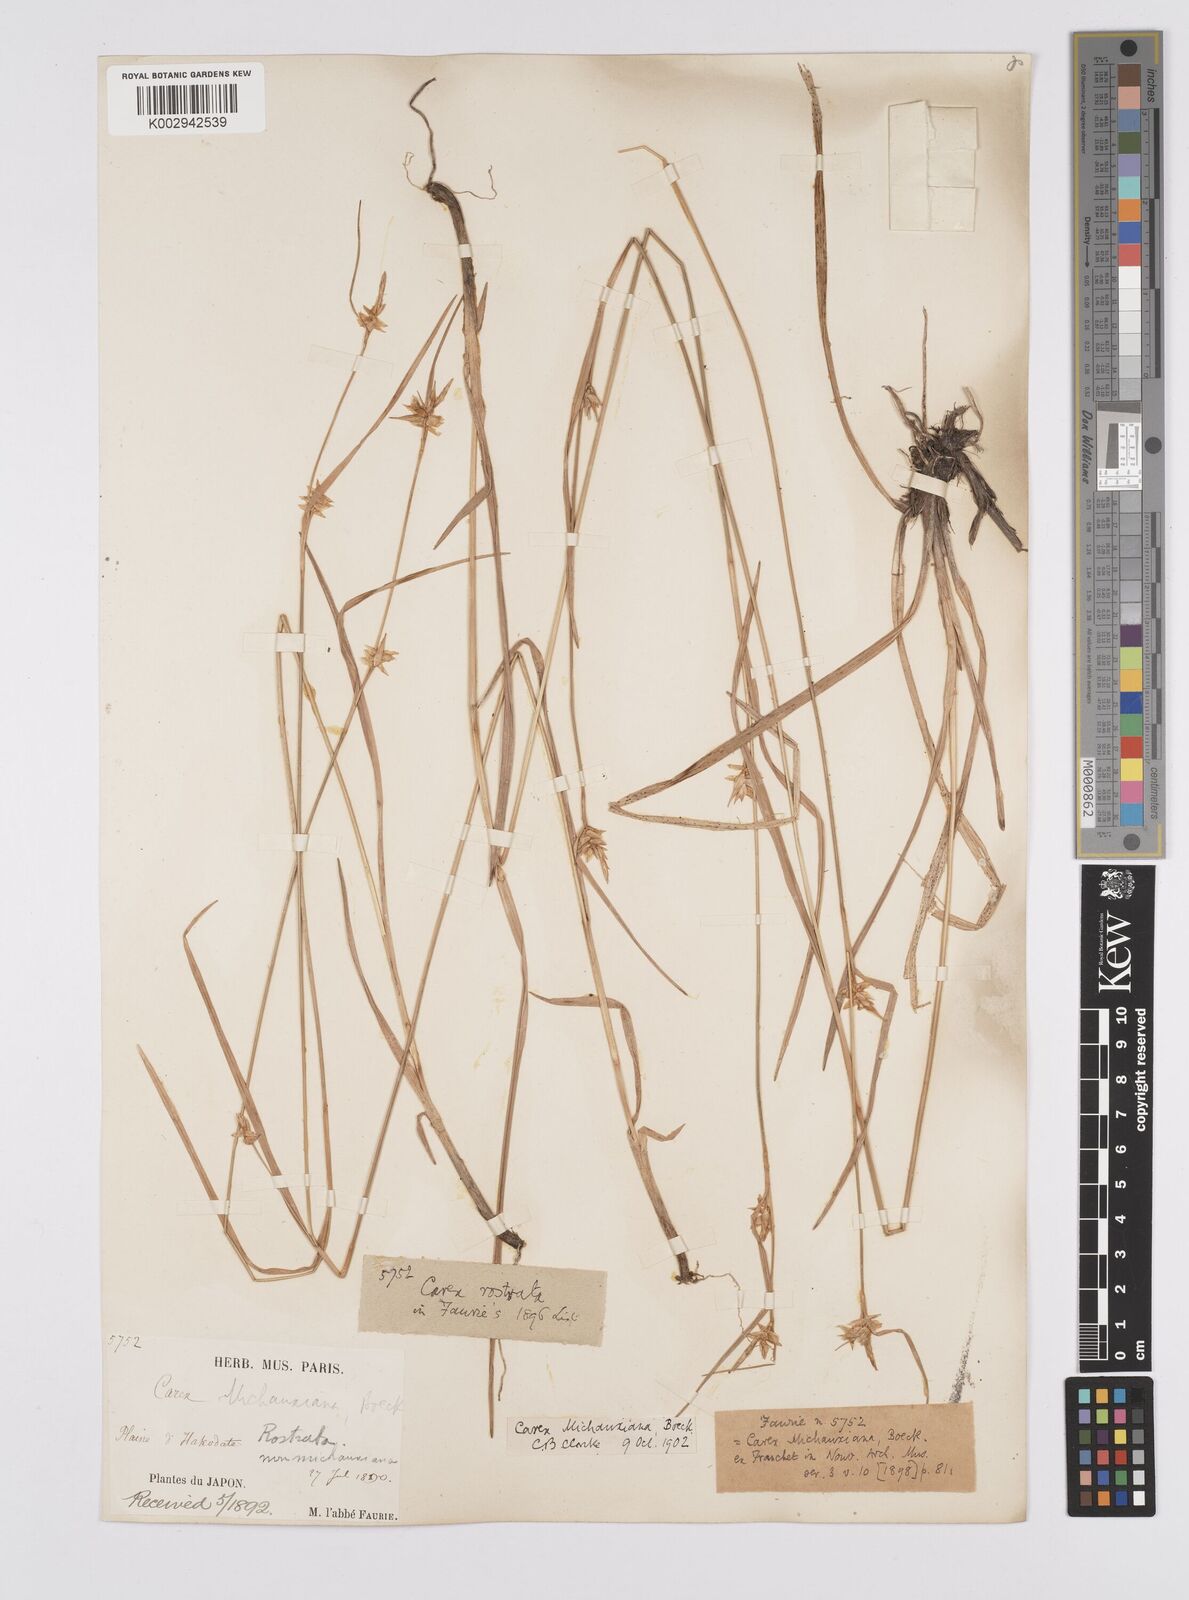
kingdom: Plantae
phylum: Tracheophyta
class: Liliopsida
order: Poales
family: Cyperaceae
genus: Carex
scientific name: Carex michauxiana
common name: Michaux's sedge
